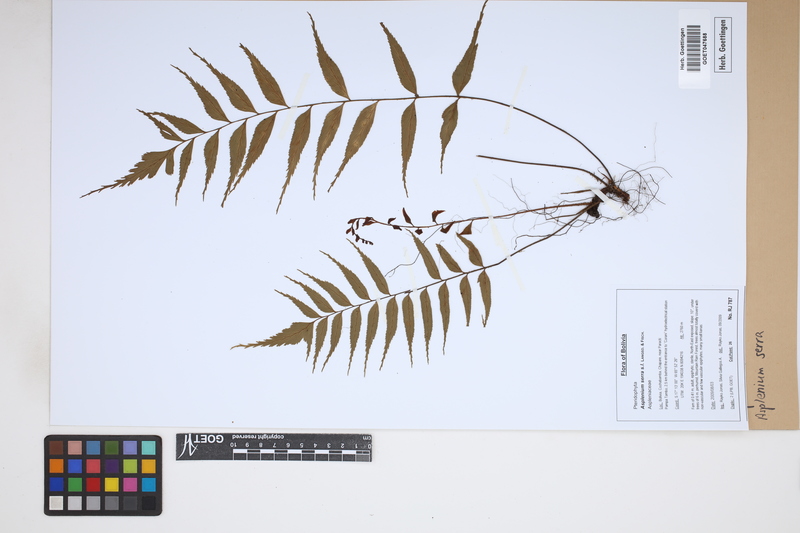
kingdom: Plantae
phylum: Tracheophyta
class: Polypodiopsida
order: Polypodiales
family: Aspleniaceae
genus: Asplenium
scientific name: Asplenium serra
